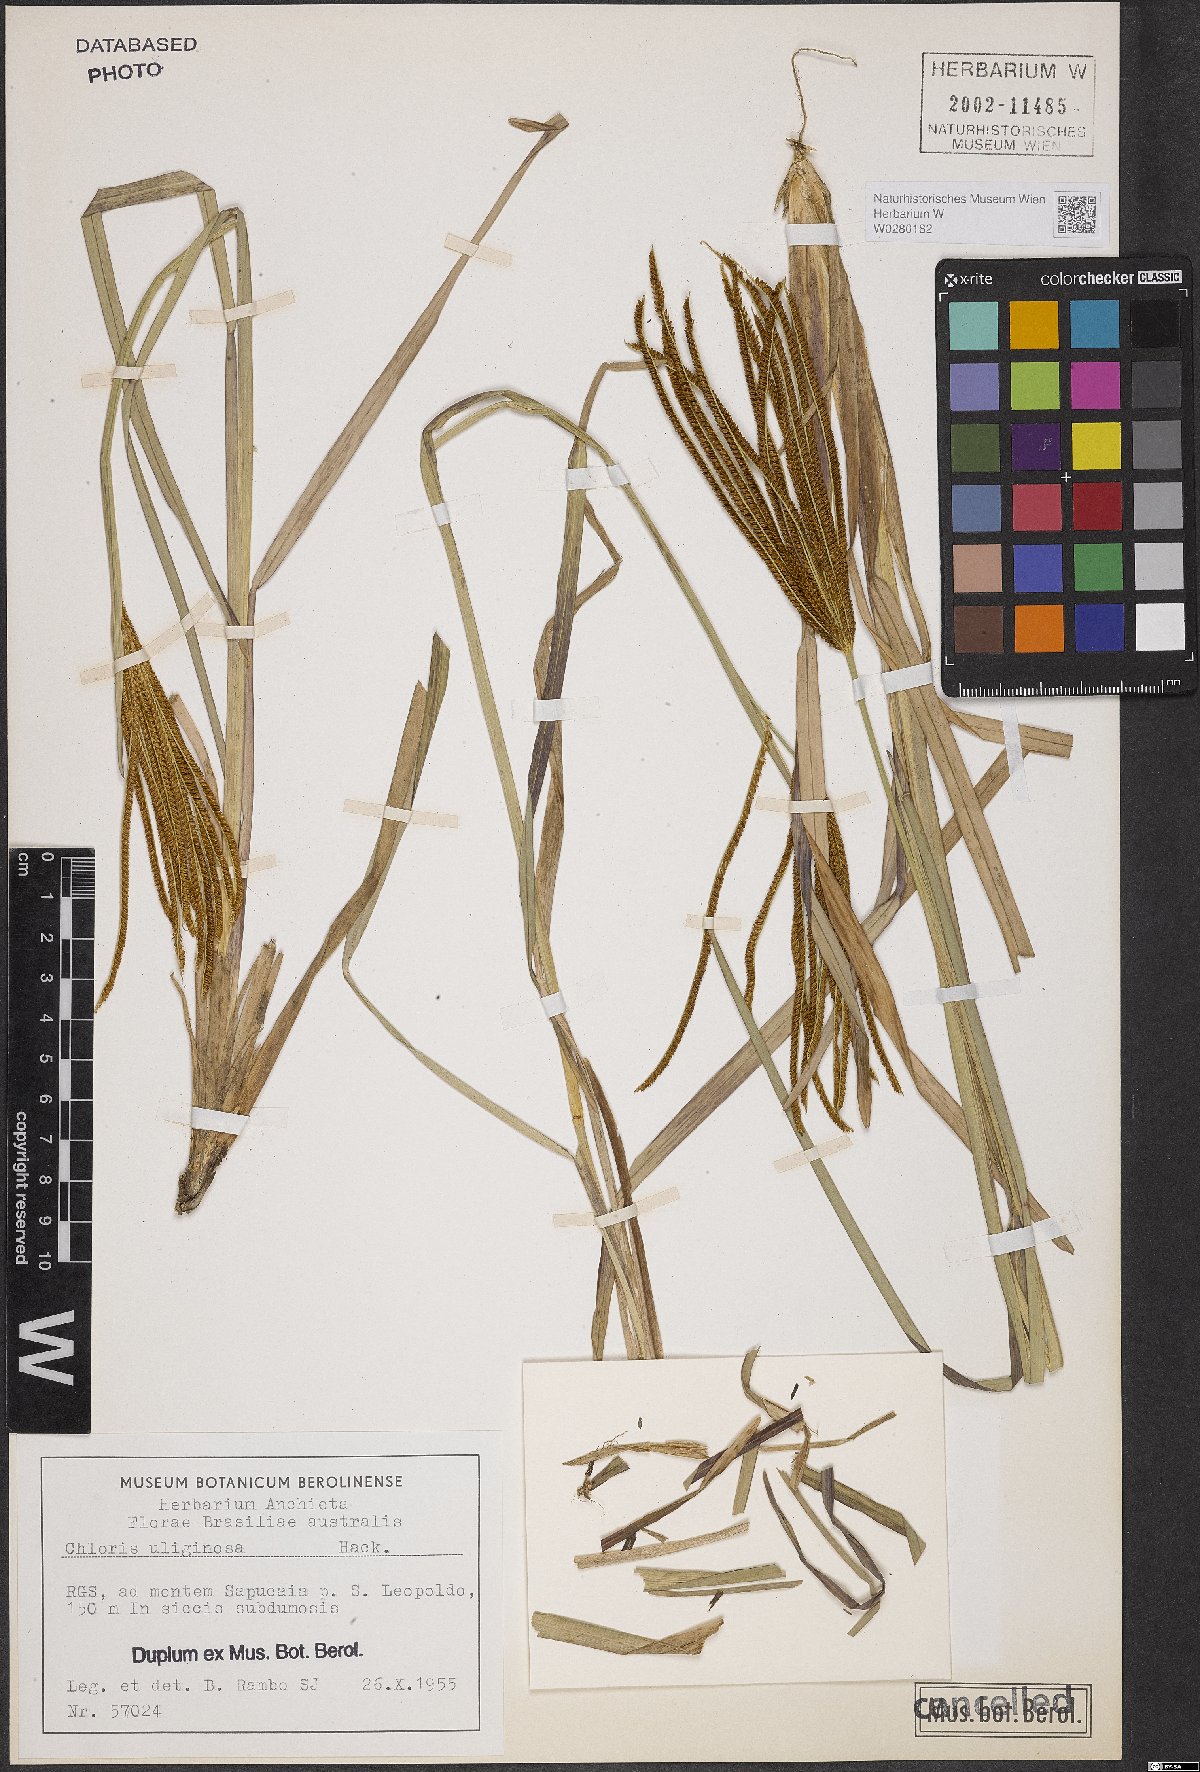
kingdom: Plantae
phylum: Tracheophyta
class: Liliopsida
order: Poales
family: Poaceae
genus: Eustachys
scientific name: Eustachys uliginosa
